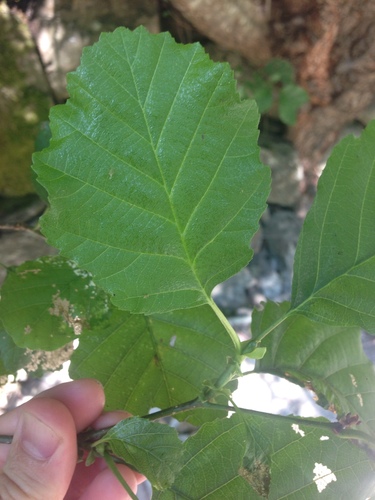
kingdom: Plantae
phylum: Tracheophyta
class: Magnoliopsida
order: Fagales
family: Betulaceae
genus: Alnus
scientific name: Alnus lusitanica
